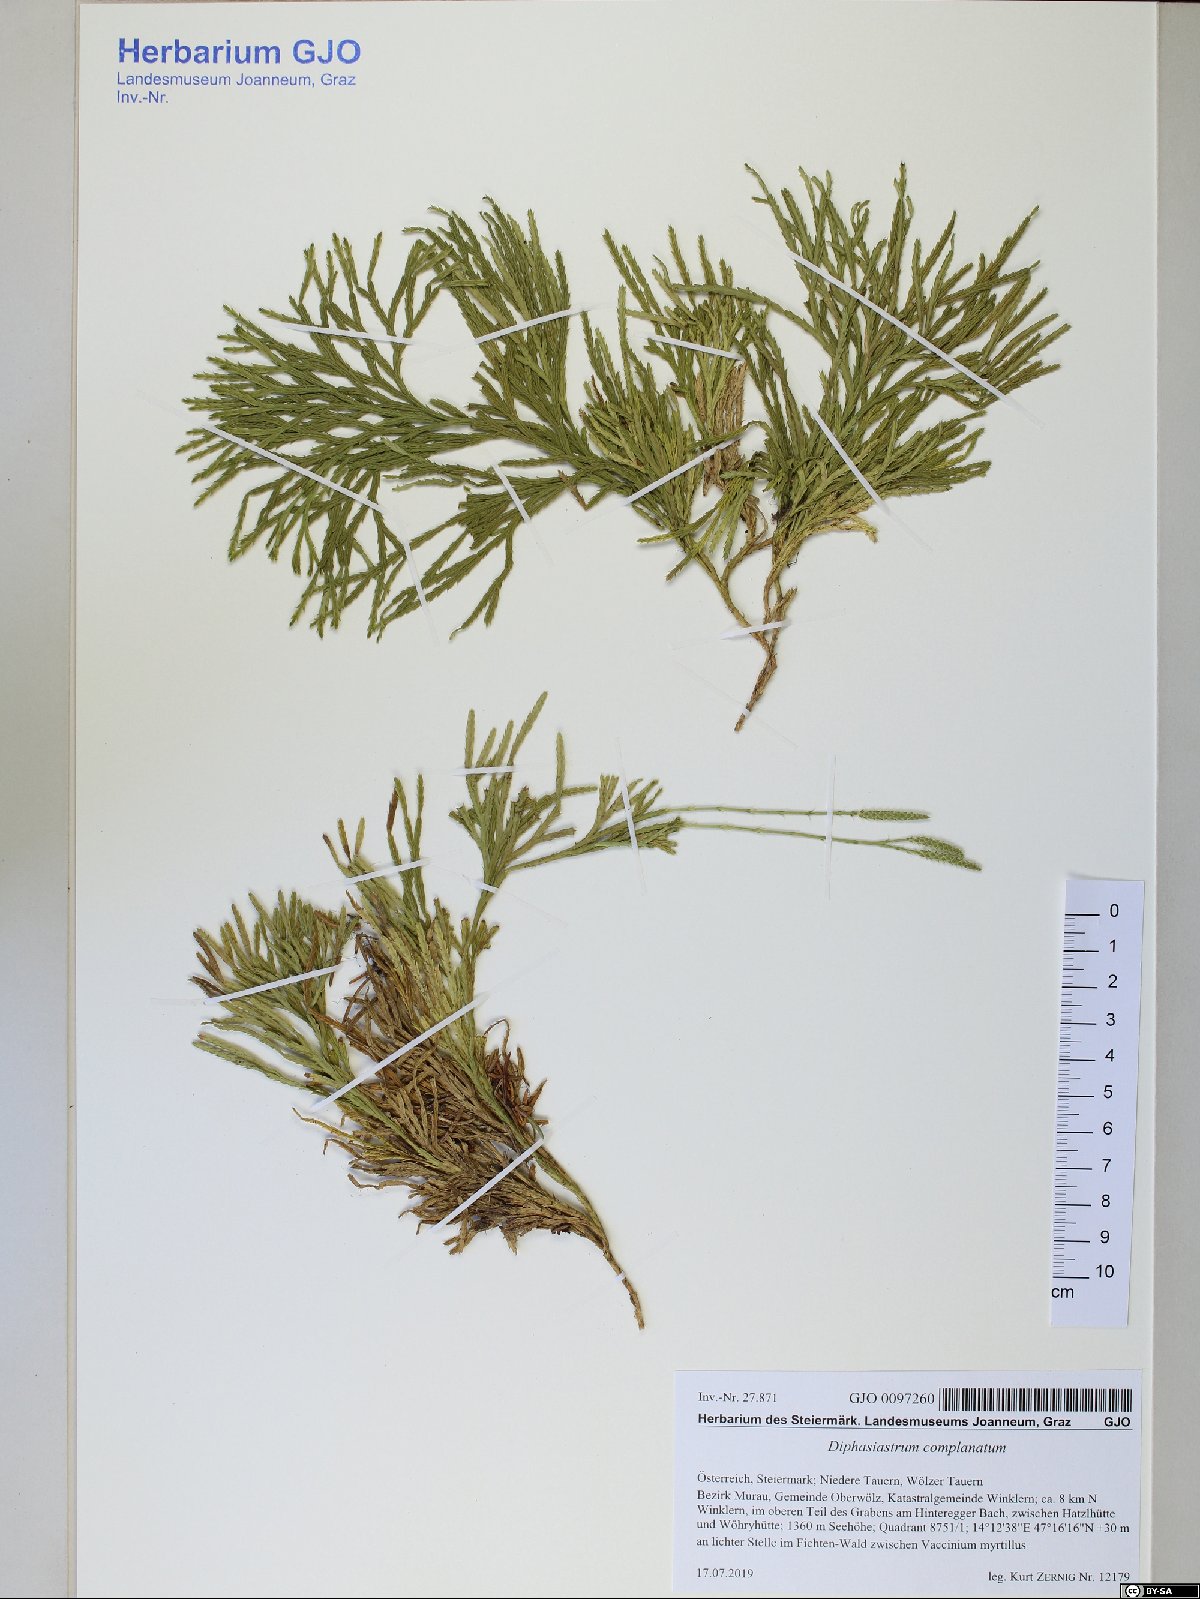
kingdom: Plantae
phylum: Tracheophyta
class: Lycopodiopsida
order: Lycopodiales
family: Lycopodiaceae
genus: Diphasiastrum
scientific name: Diphasiastrum complanatum
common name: Northern running-pine
